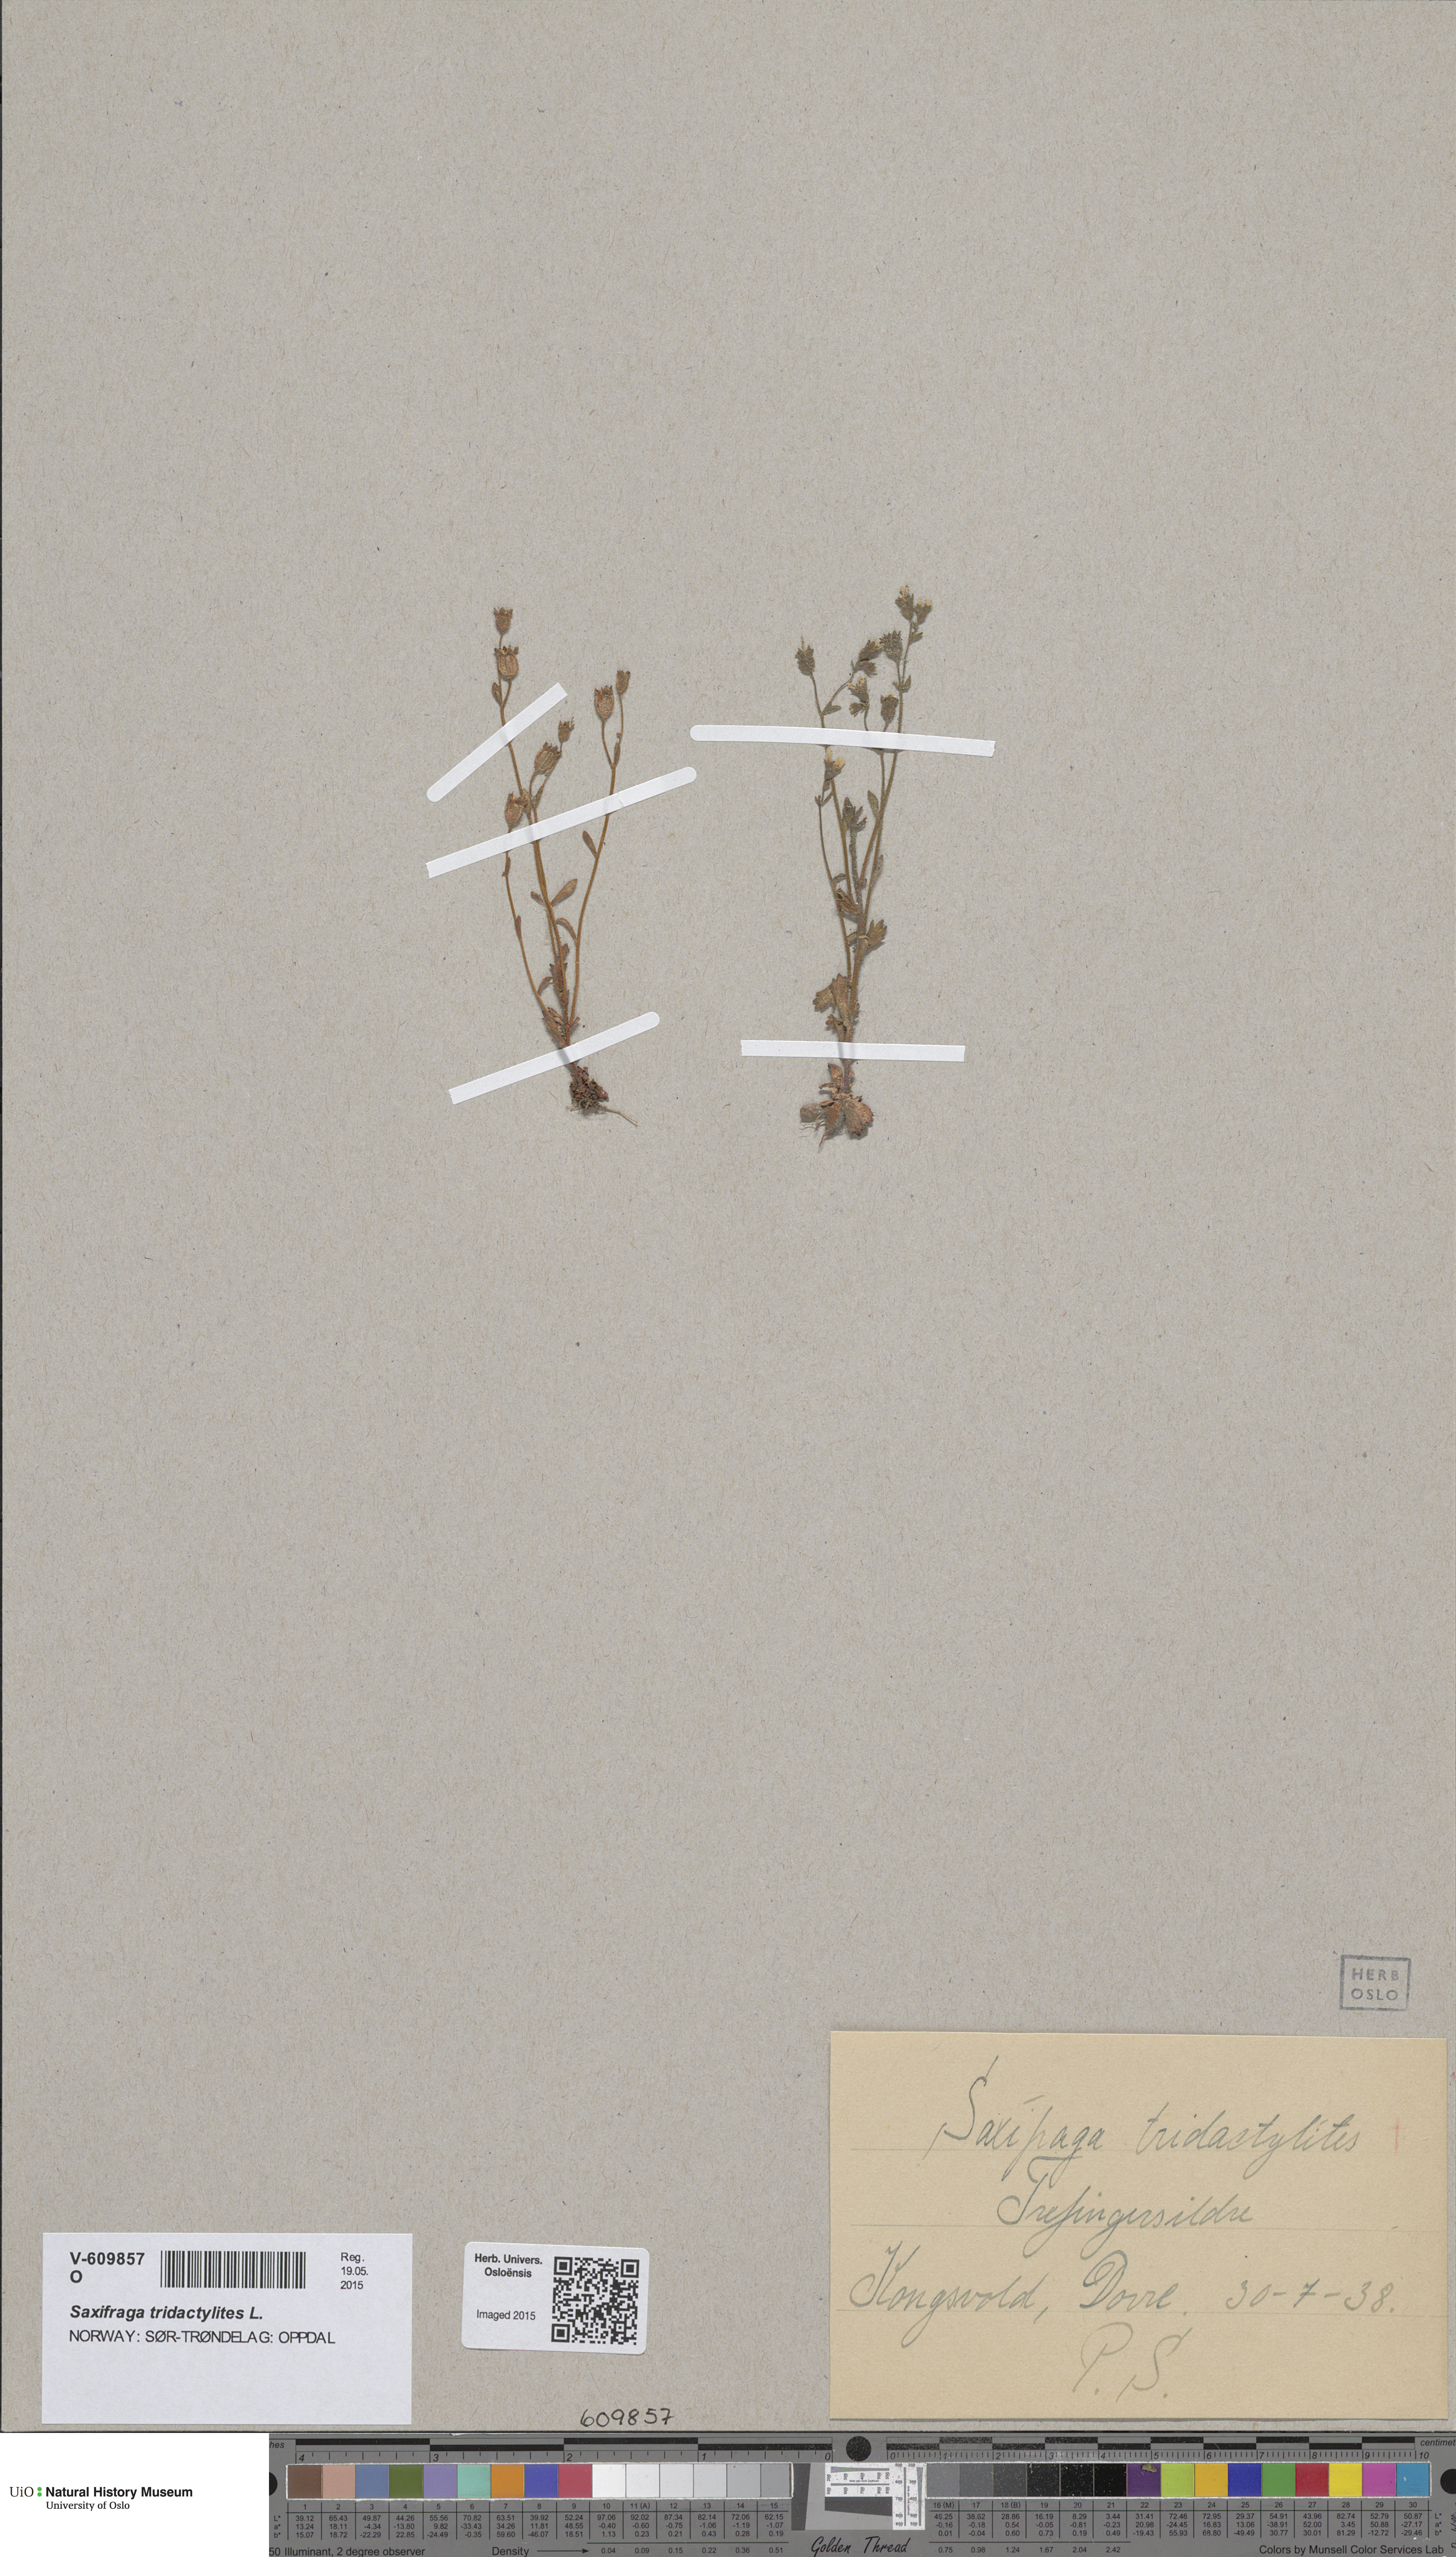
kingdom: Plantae
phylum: Tracheophyta
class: Magnoliopsida
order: Saxifragales
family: Saxifragaceae
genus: Saxifraga
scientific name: Saxifraga adscendens
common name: Ascending saxifrage
